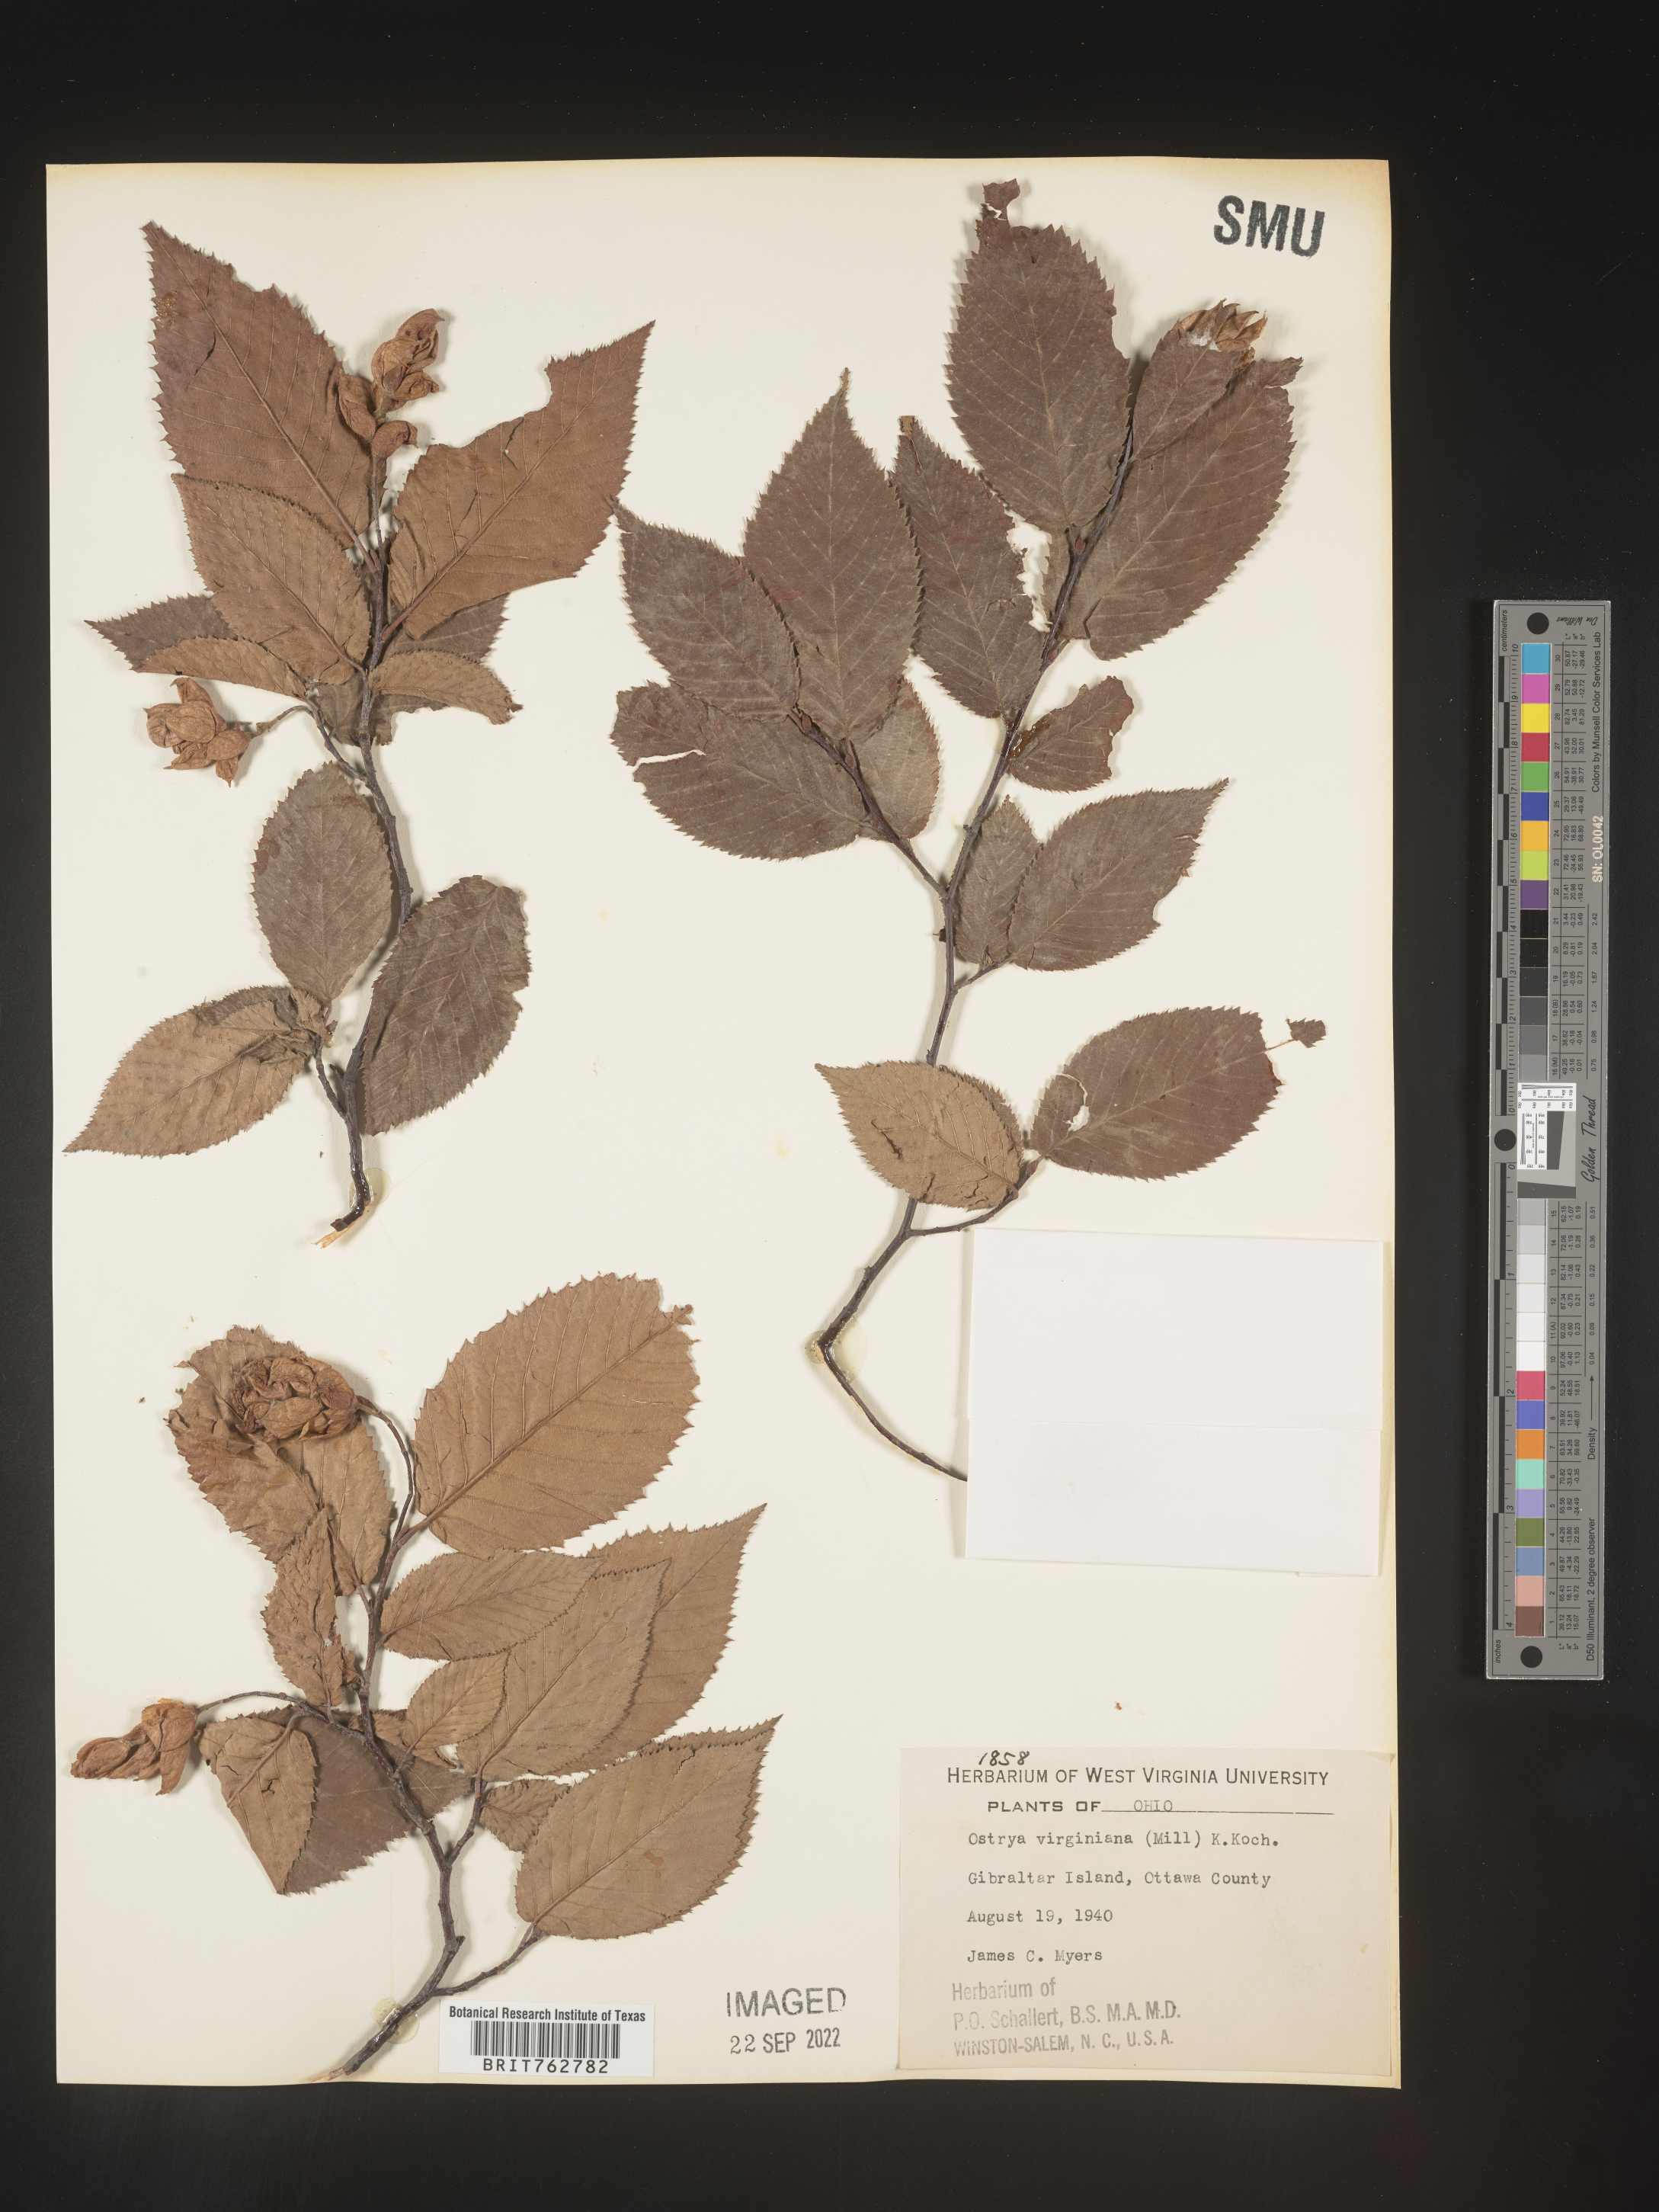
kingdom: Plantae
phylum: Tracheophyta
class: Magnoliopsida
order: Fagales
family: Betulaceae
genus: Ostrya
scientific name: Ostrya virginiana
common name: Ironwood
